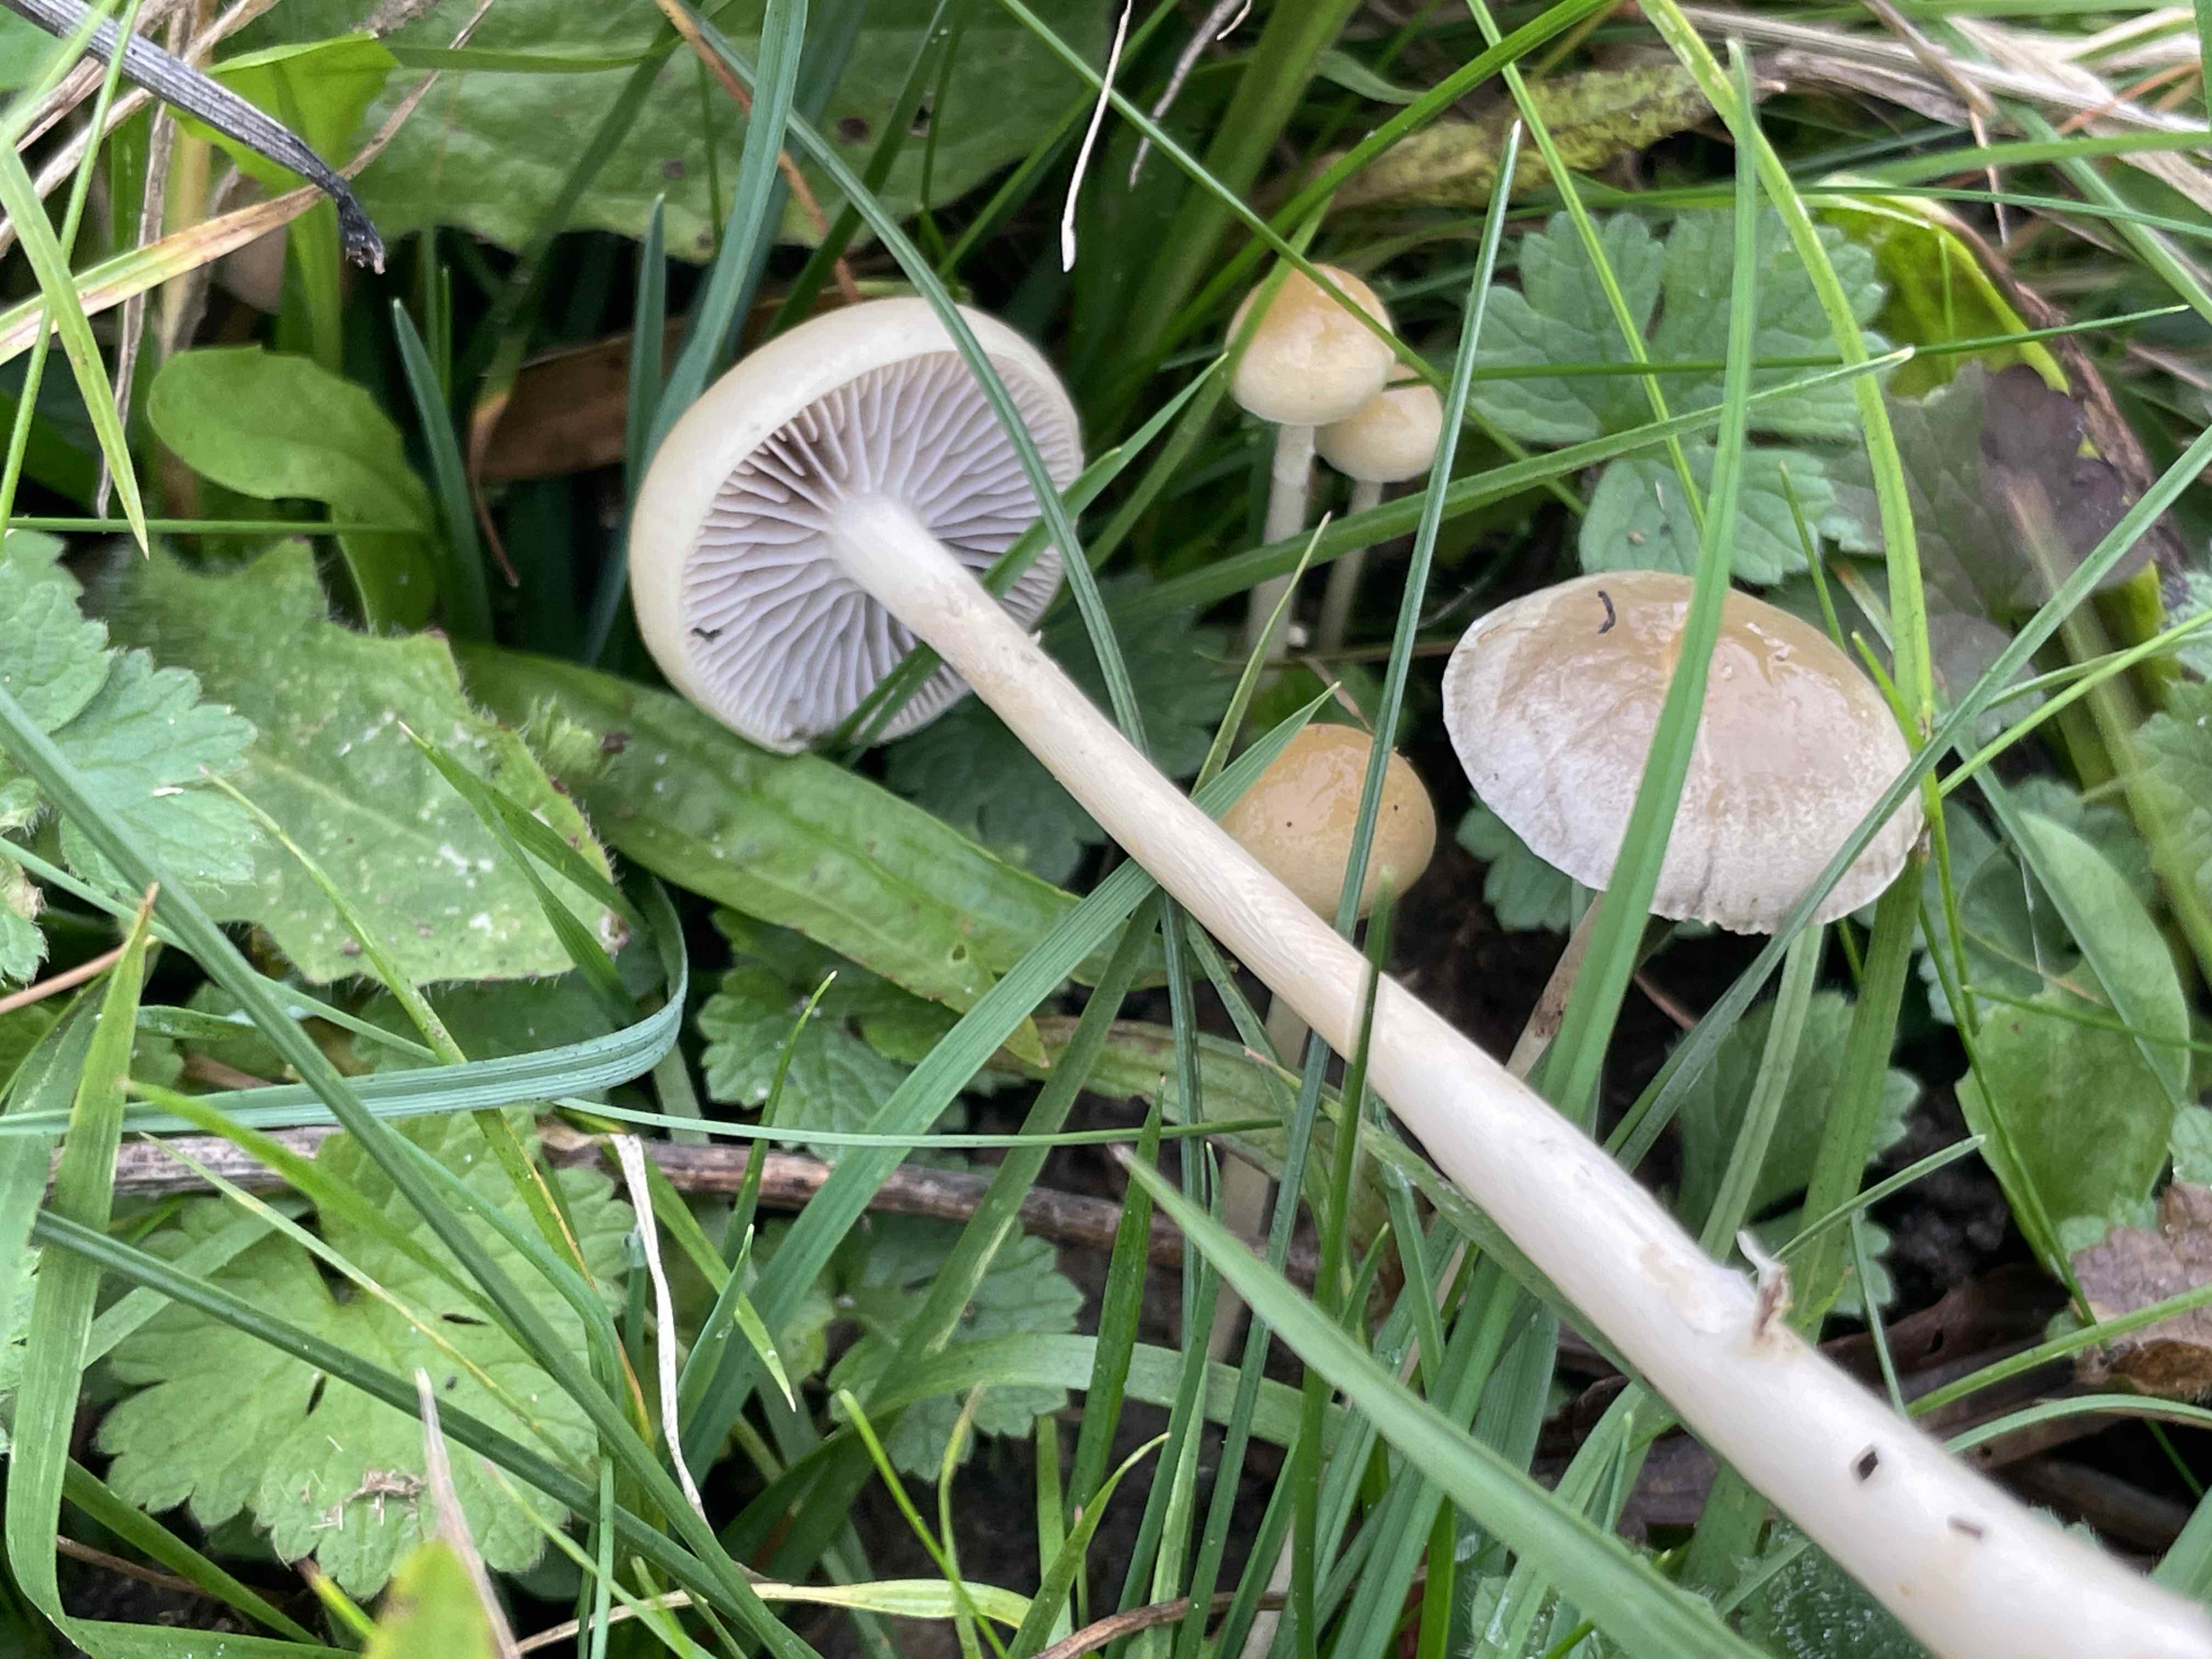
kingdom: Fungi
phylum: Basidiomycota
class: Agaricomycetes
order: Agaricales
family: Strophariaceae
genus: Protostropharia
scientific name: Protostropharia semiglobata
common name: halvkugleformet bredblad
